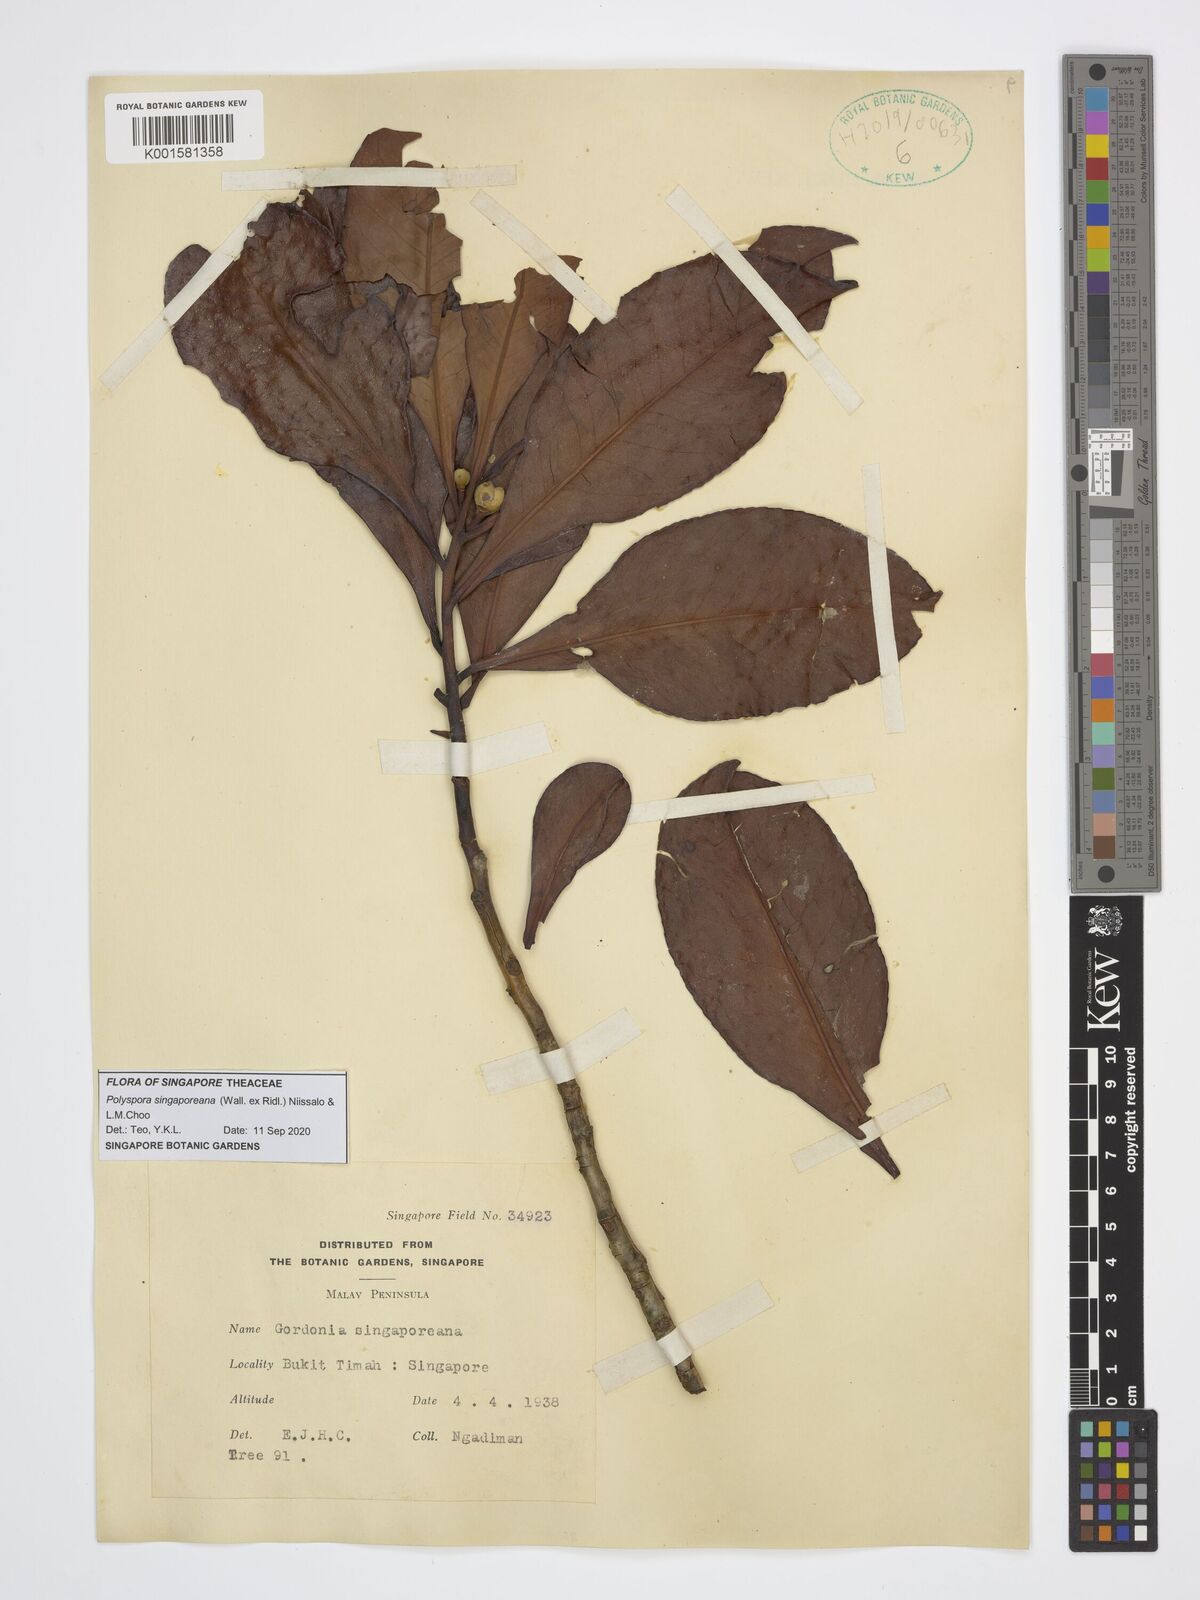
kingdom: Plantae
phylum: Tracheophyta
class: Magnoliopsida
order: Ericales
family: Theaceae
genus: Polyspora
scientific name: Polyspora
